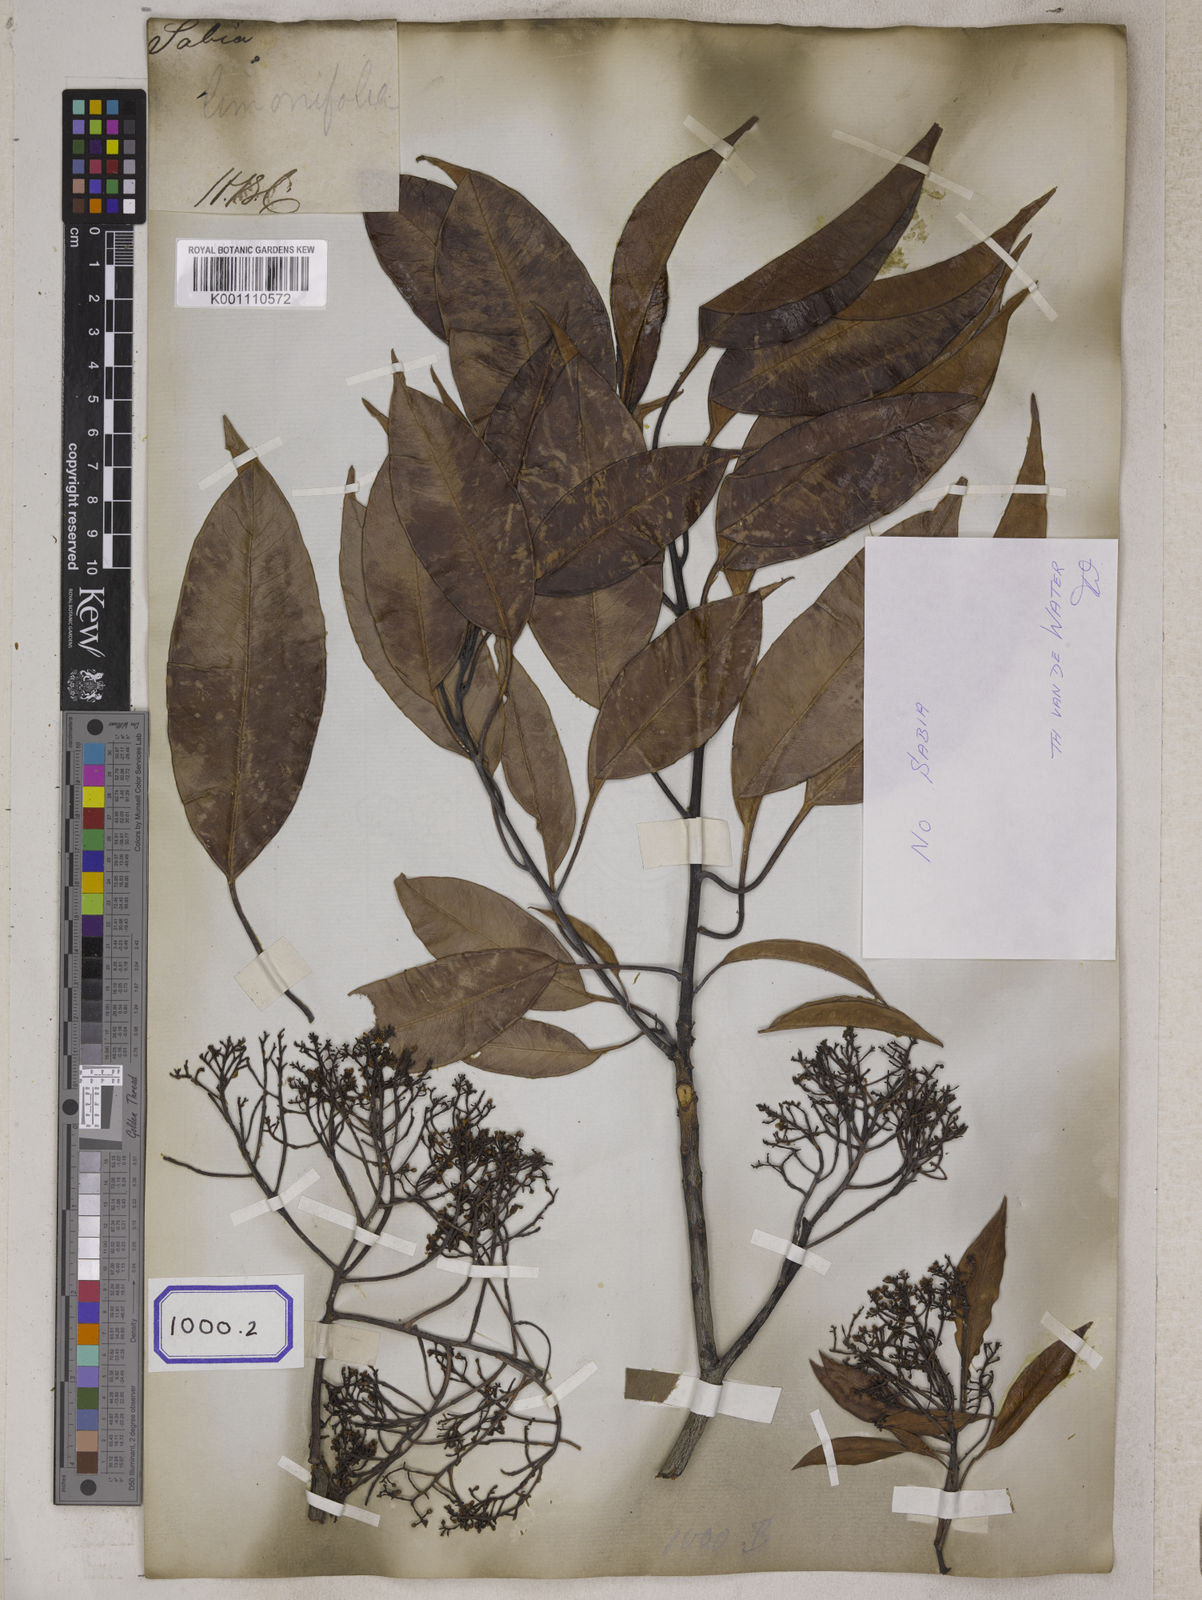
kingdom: Plantae
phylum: Tracheophyta
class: Magnoliopsida
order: Proteales
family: Sabiaceae
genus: Sabia
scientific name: Sabia
